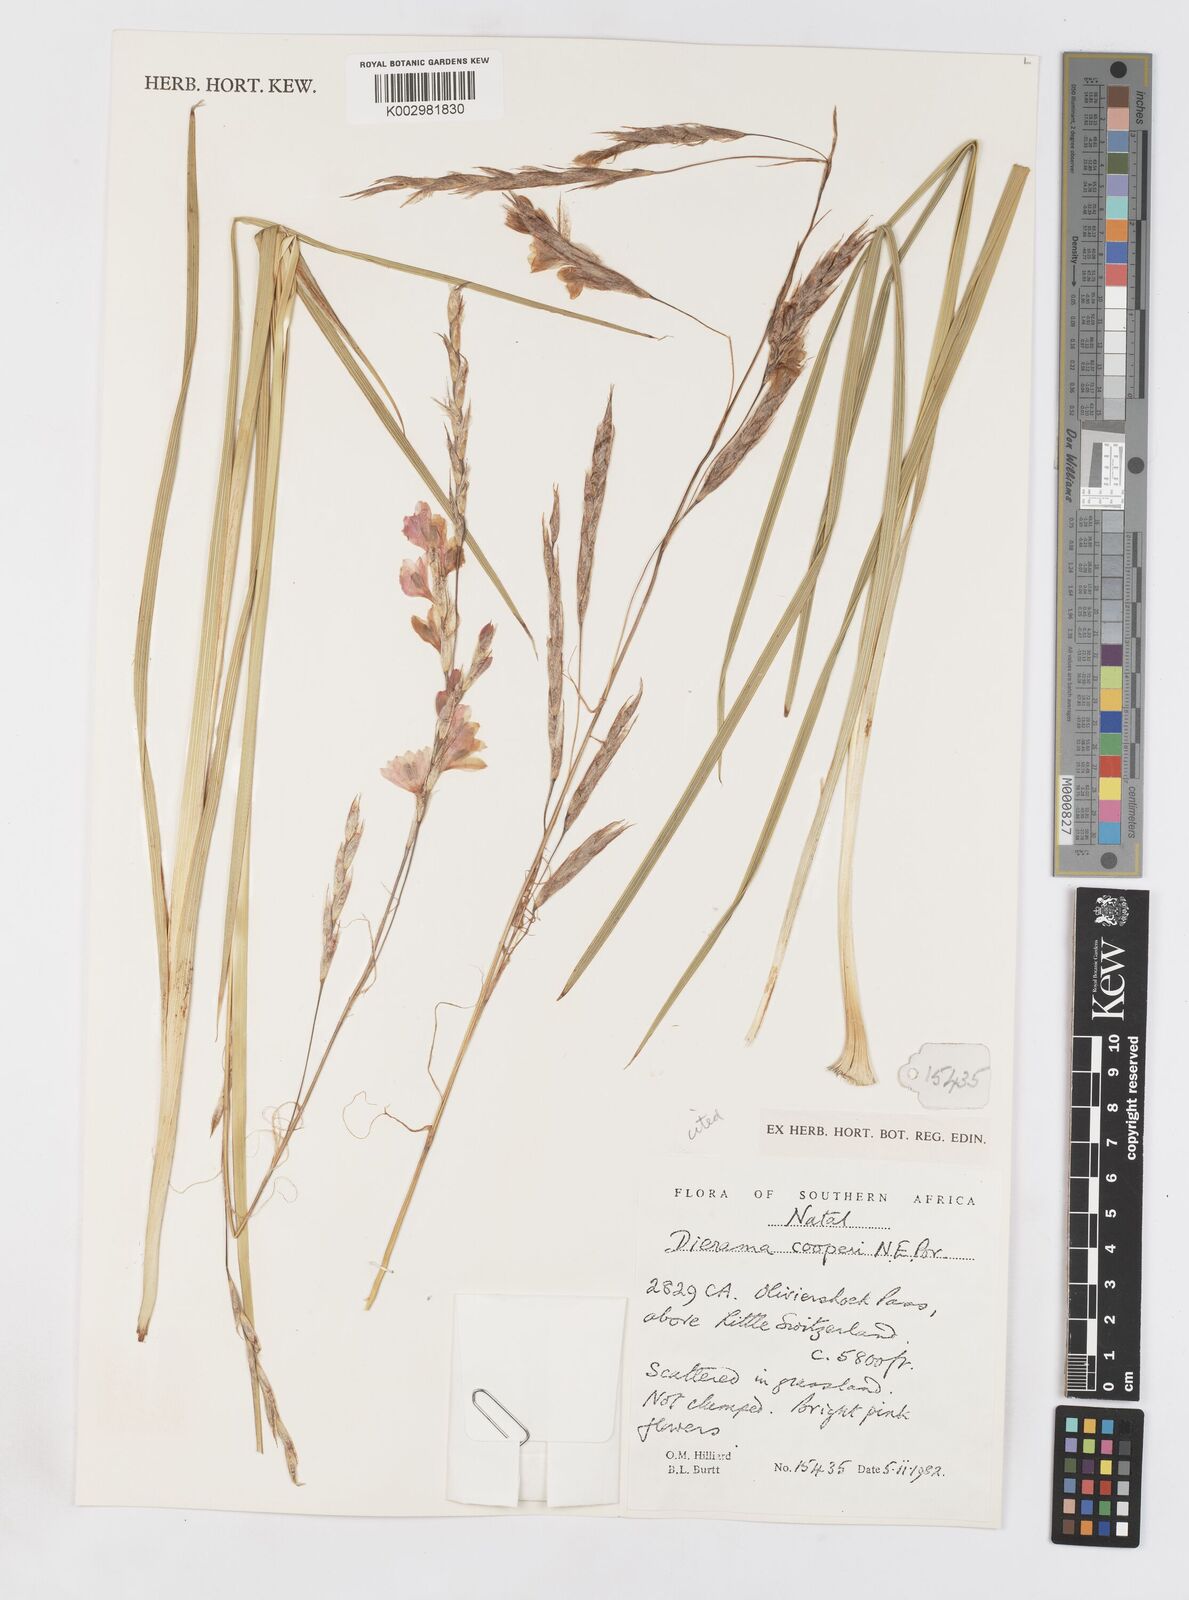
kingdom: Plantae
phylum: Tracheophyta
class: Liliopsida
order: Asparagales
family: Iridaceae
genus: Dierama
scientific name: Dierama cooperi
